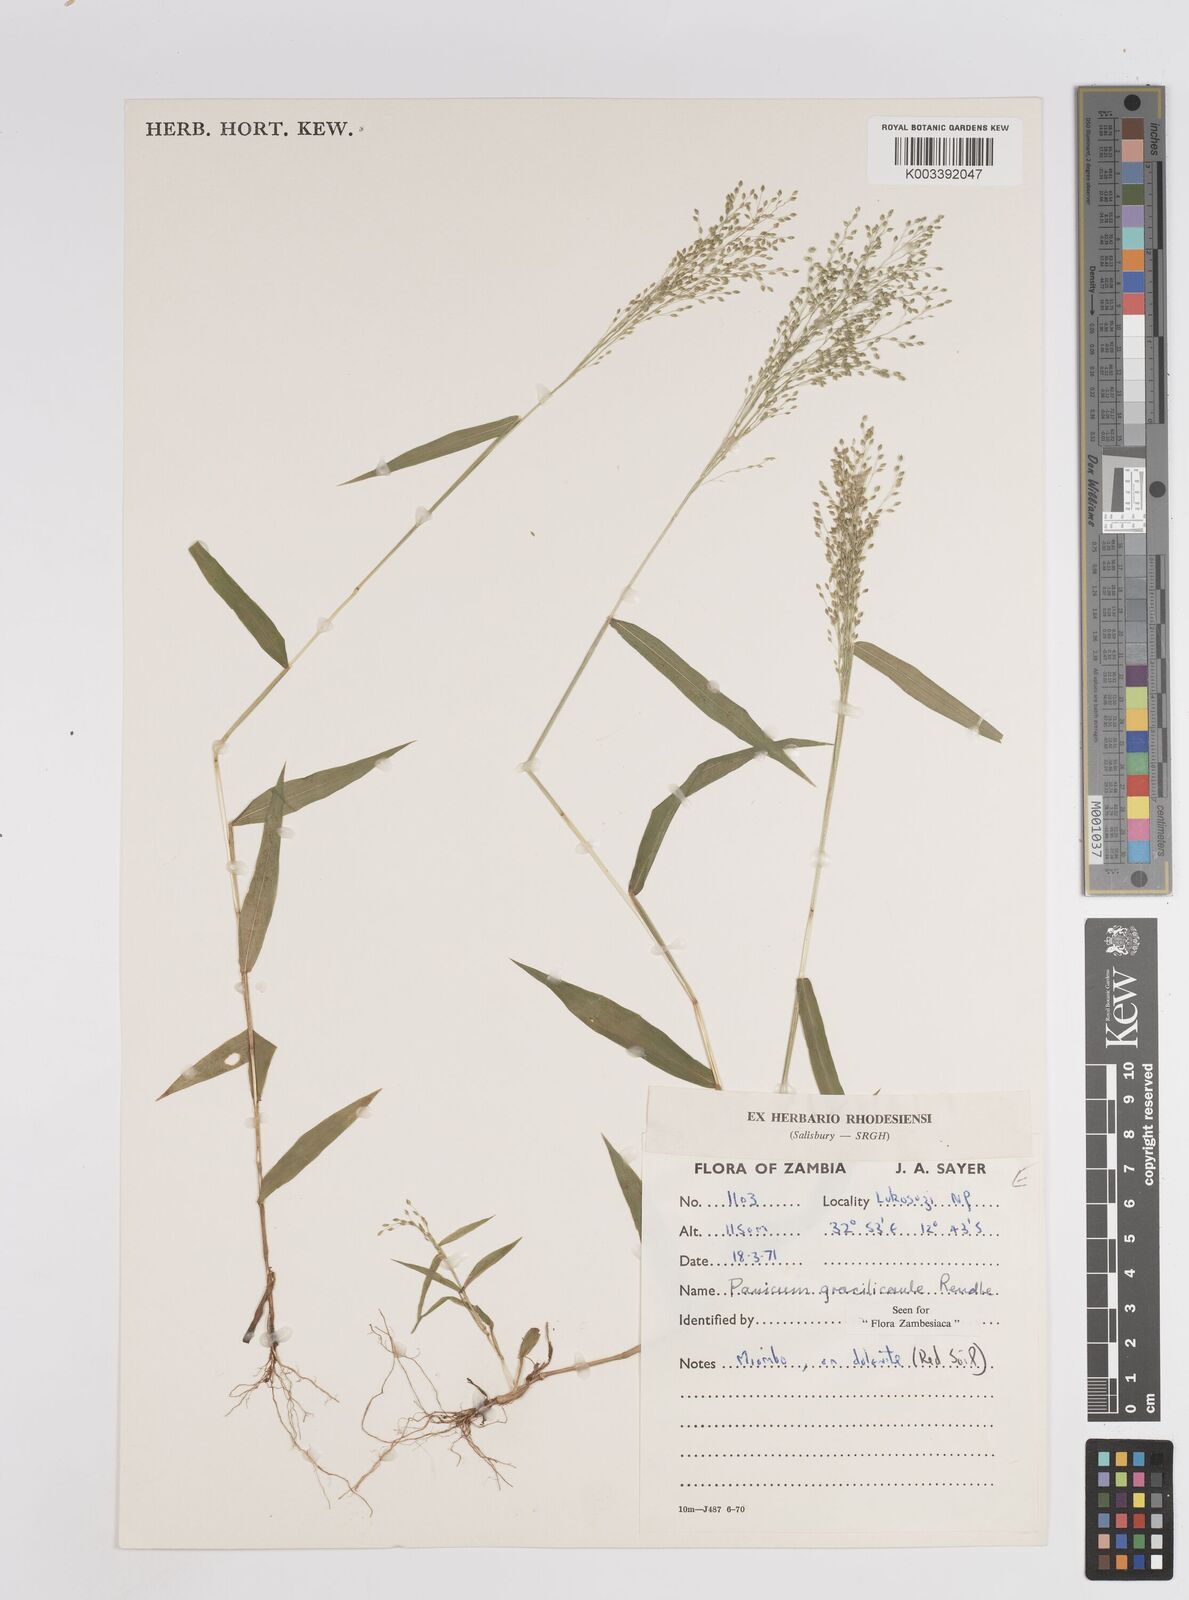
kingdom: Plantae
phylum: Tracheophyta
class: Liliopsida
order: Poales
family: Poaceae
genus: Trichanthecium
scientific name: Trichanthecium gracilicaule
